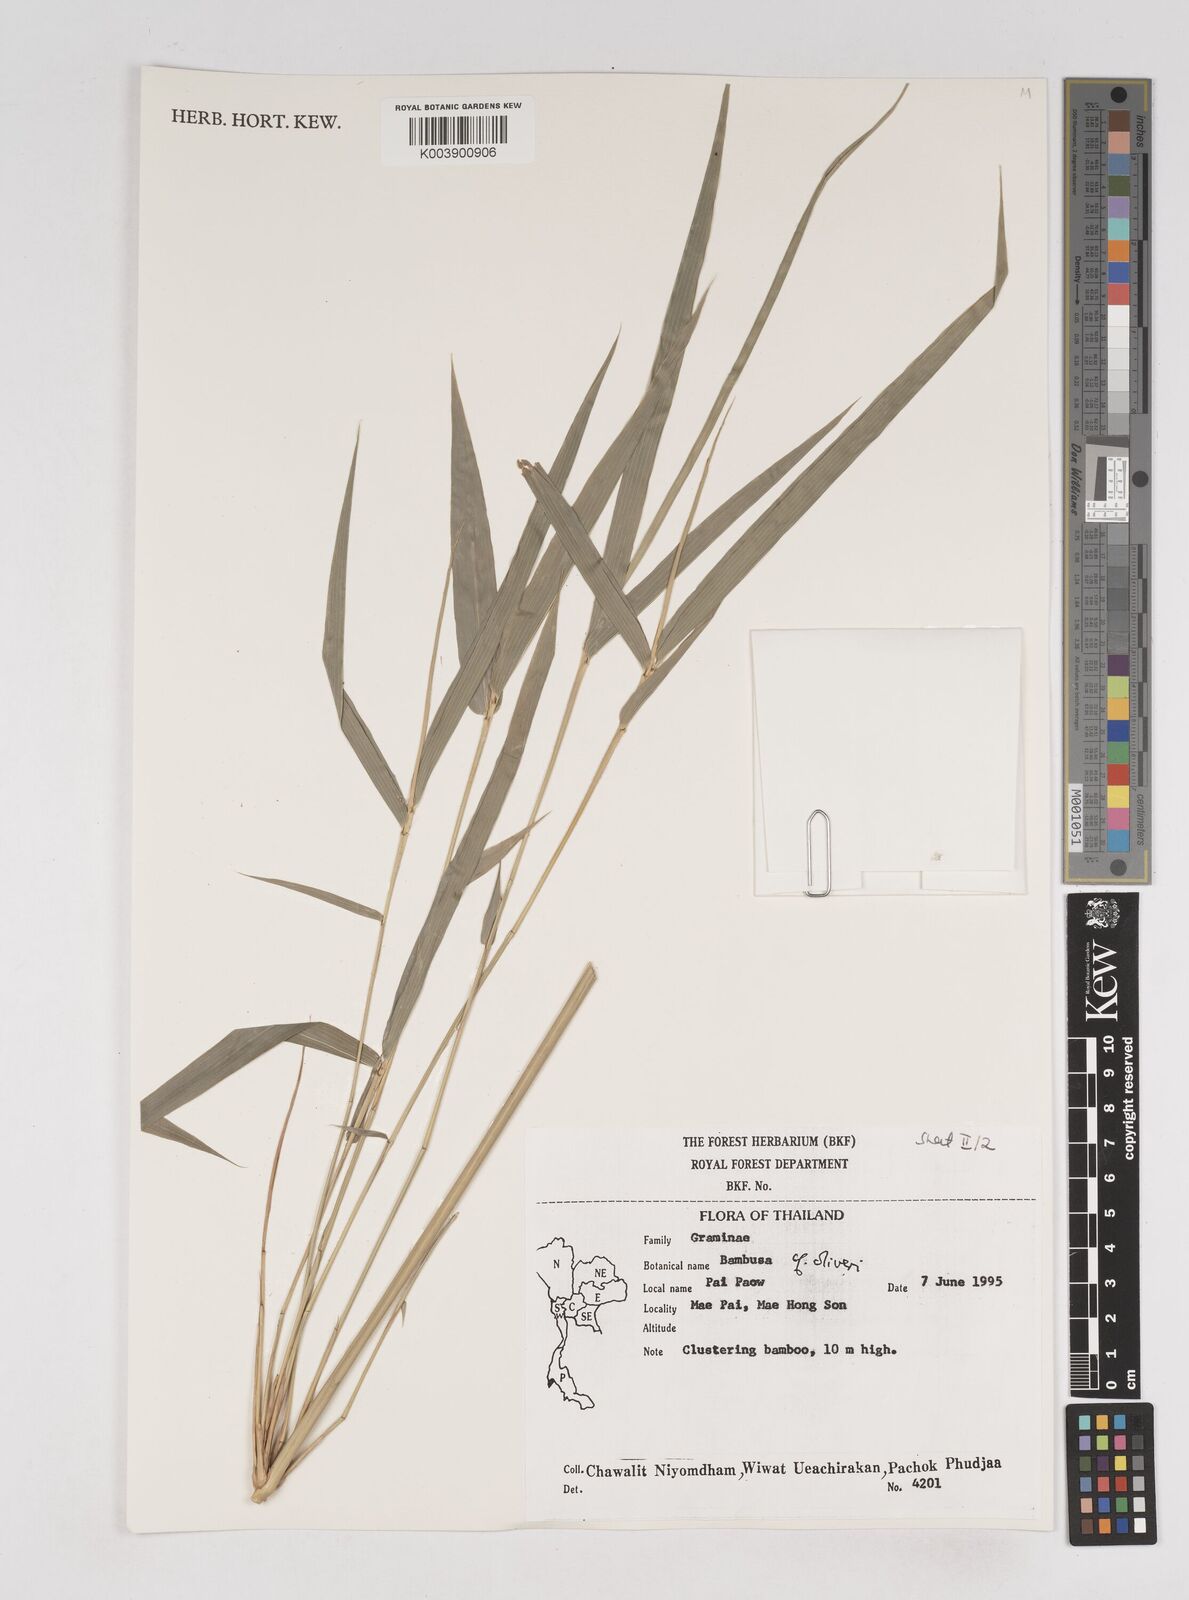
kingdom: Plantae
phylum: Tracheophyta
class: Liliopsida
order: Poales
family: Poaceae
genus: Thyrsostachys
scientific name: Thyrsostachys oliveri
